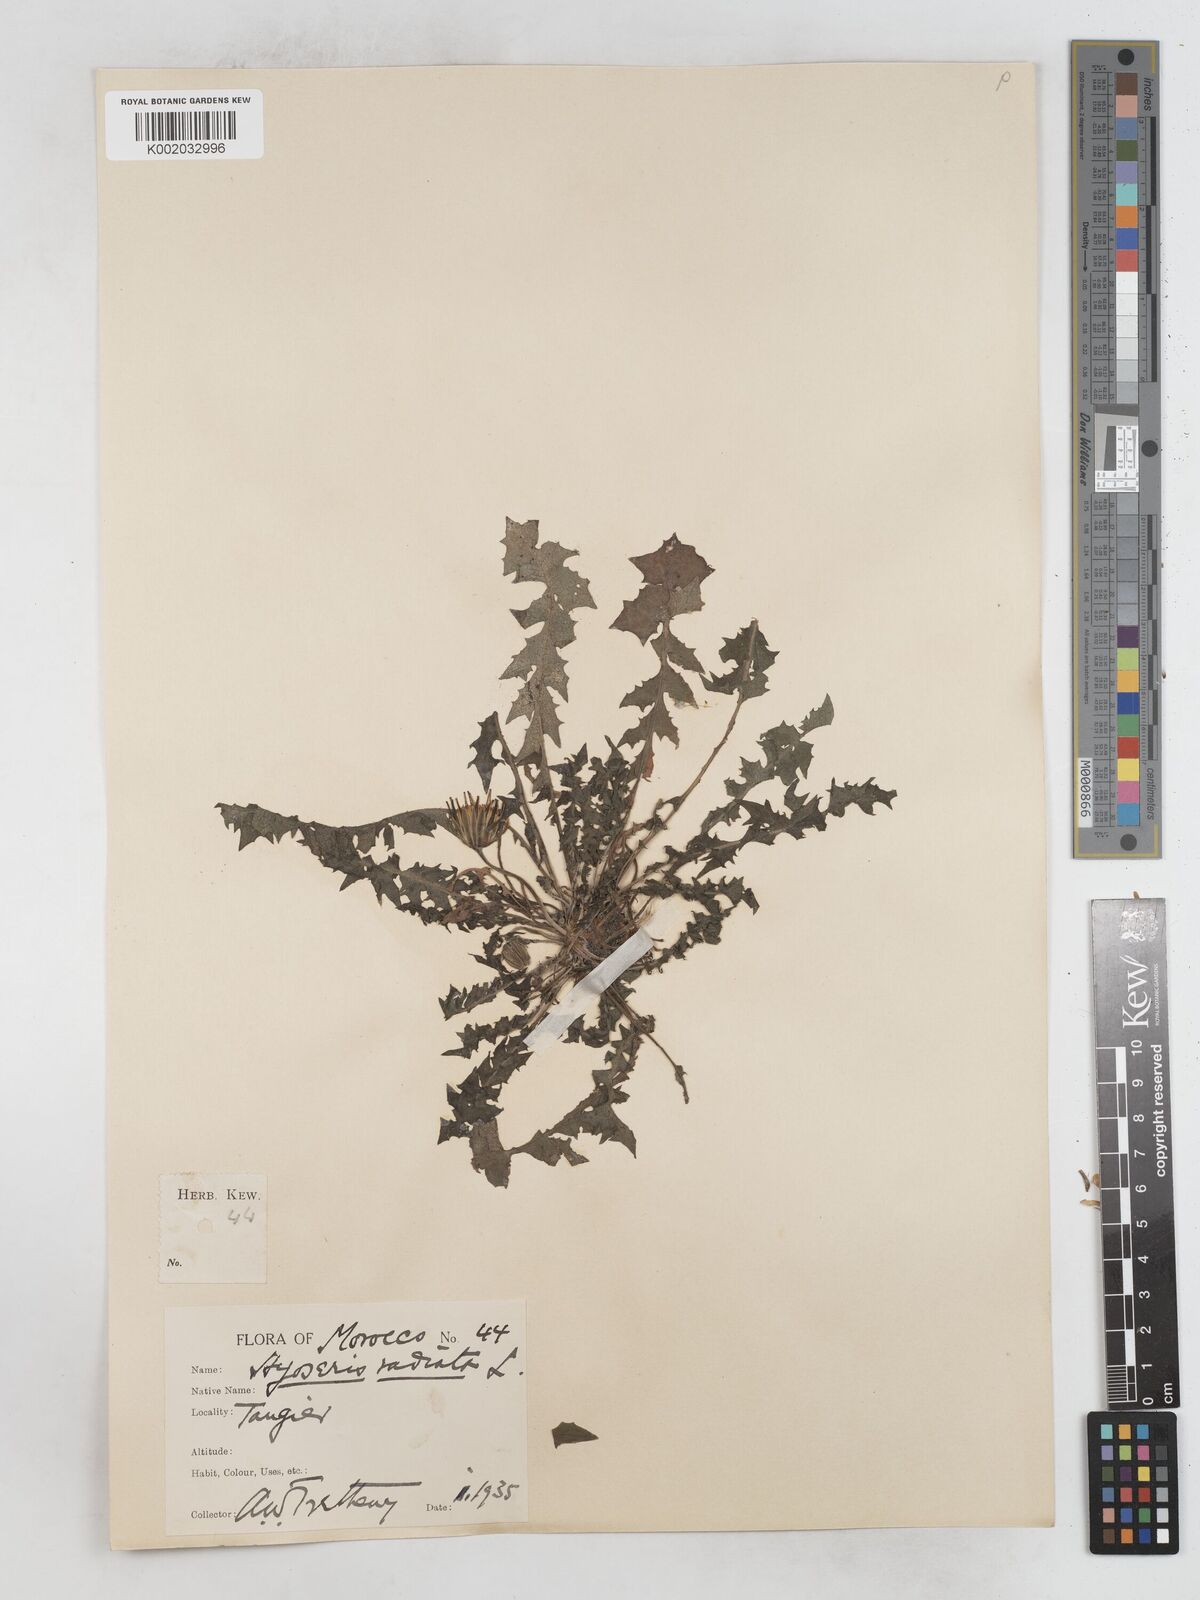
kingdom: Plantae
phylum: Tracheophyta
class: Magnoliopsida
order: Asterales
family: Asteraceae
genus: Hyoseris
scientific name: Hyoseris radiata
